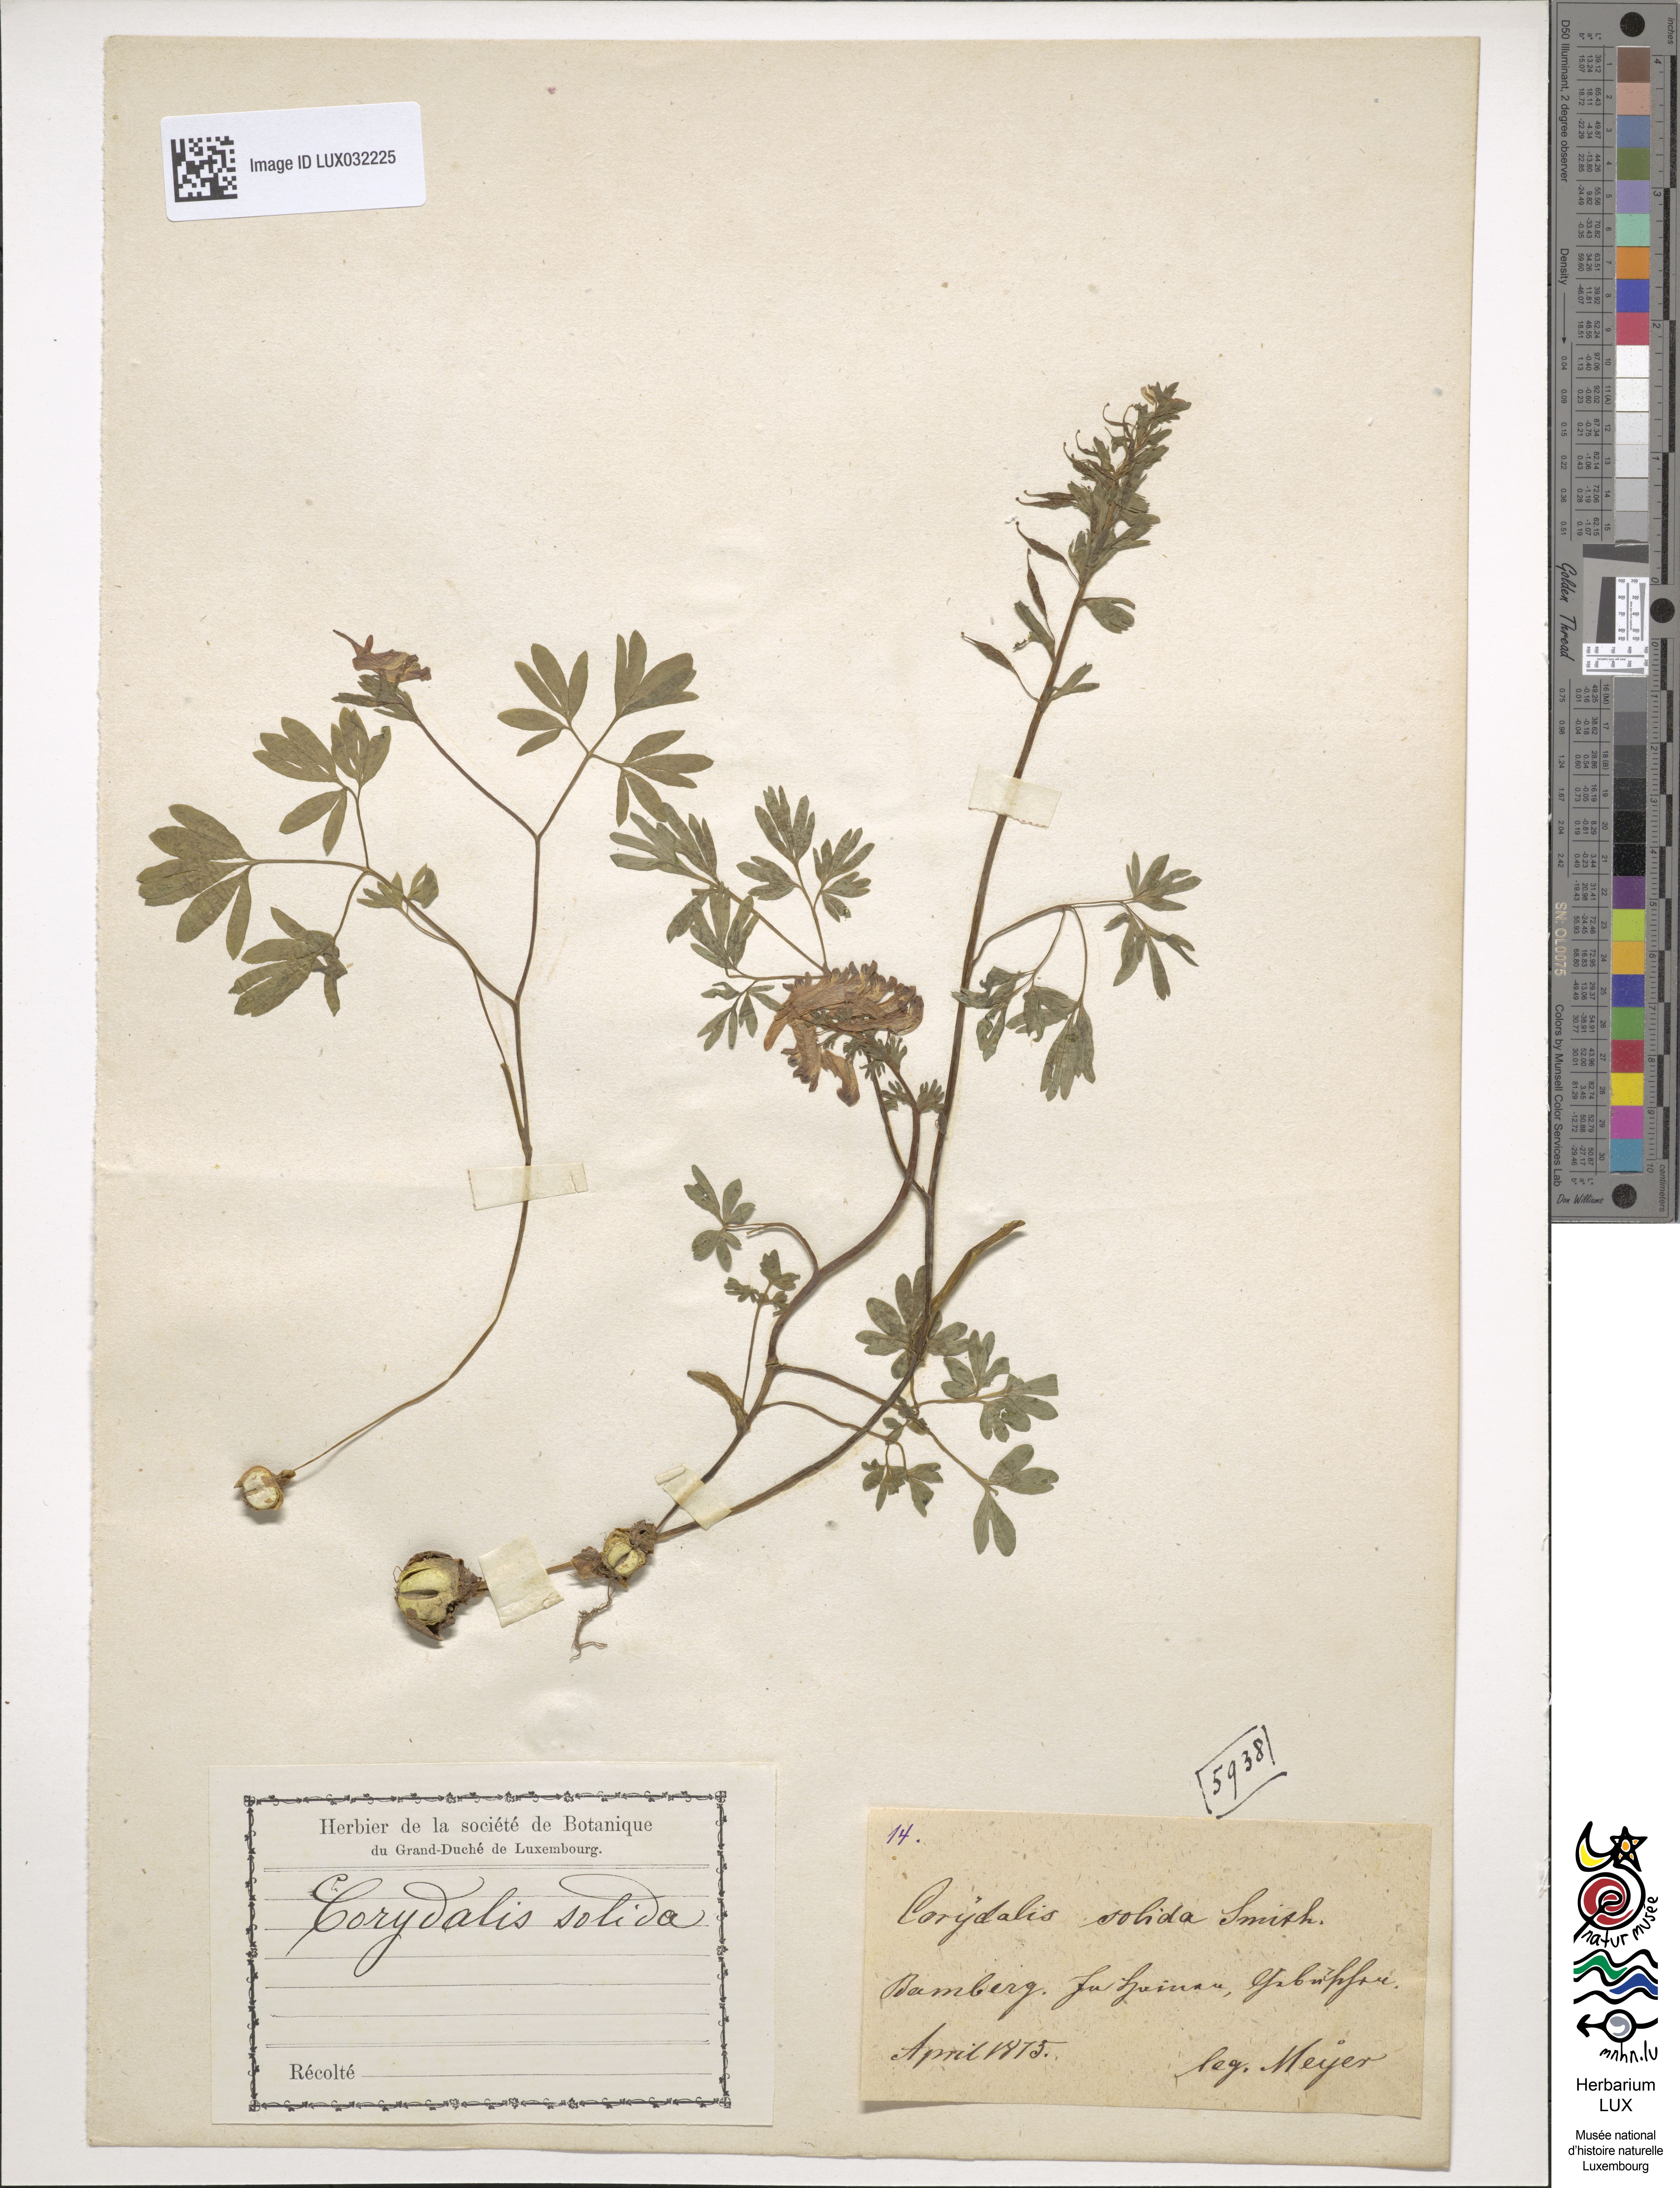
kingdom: Plantae
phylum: Tracheophyta
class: Magnoliopsida
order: Ranunculales
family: Papaveraceae
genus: Corydalis
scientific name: Corydalis solida
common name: Bird-in-a-bush
